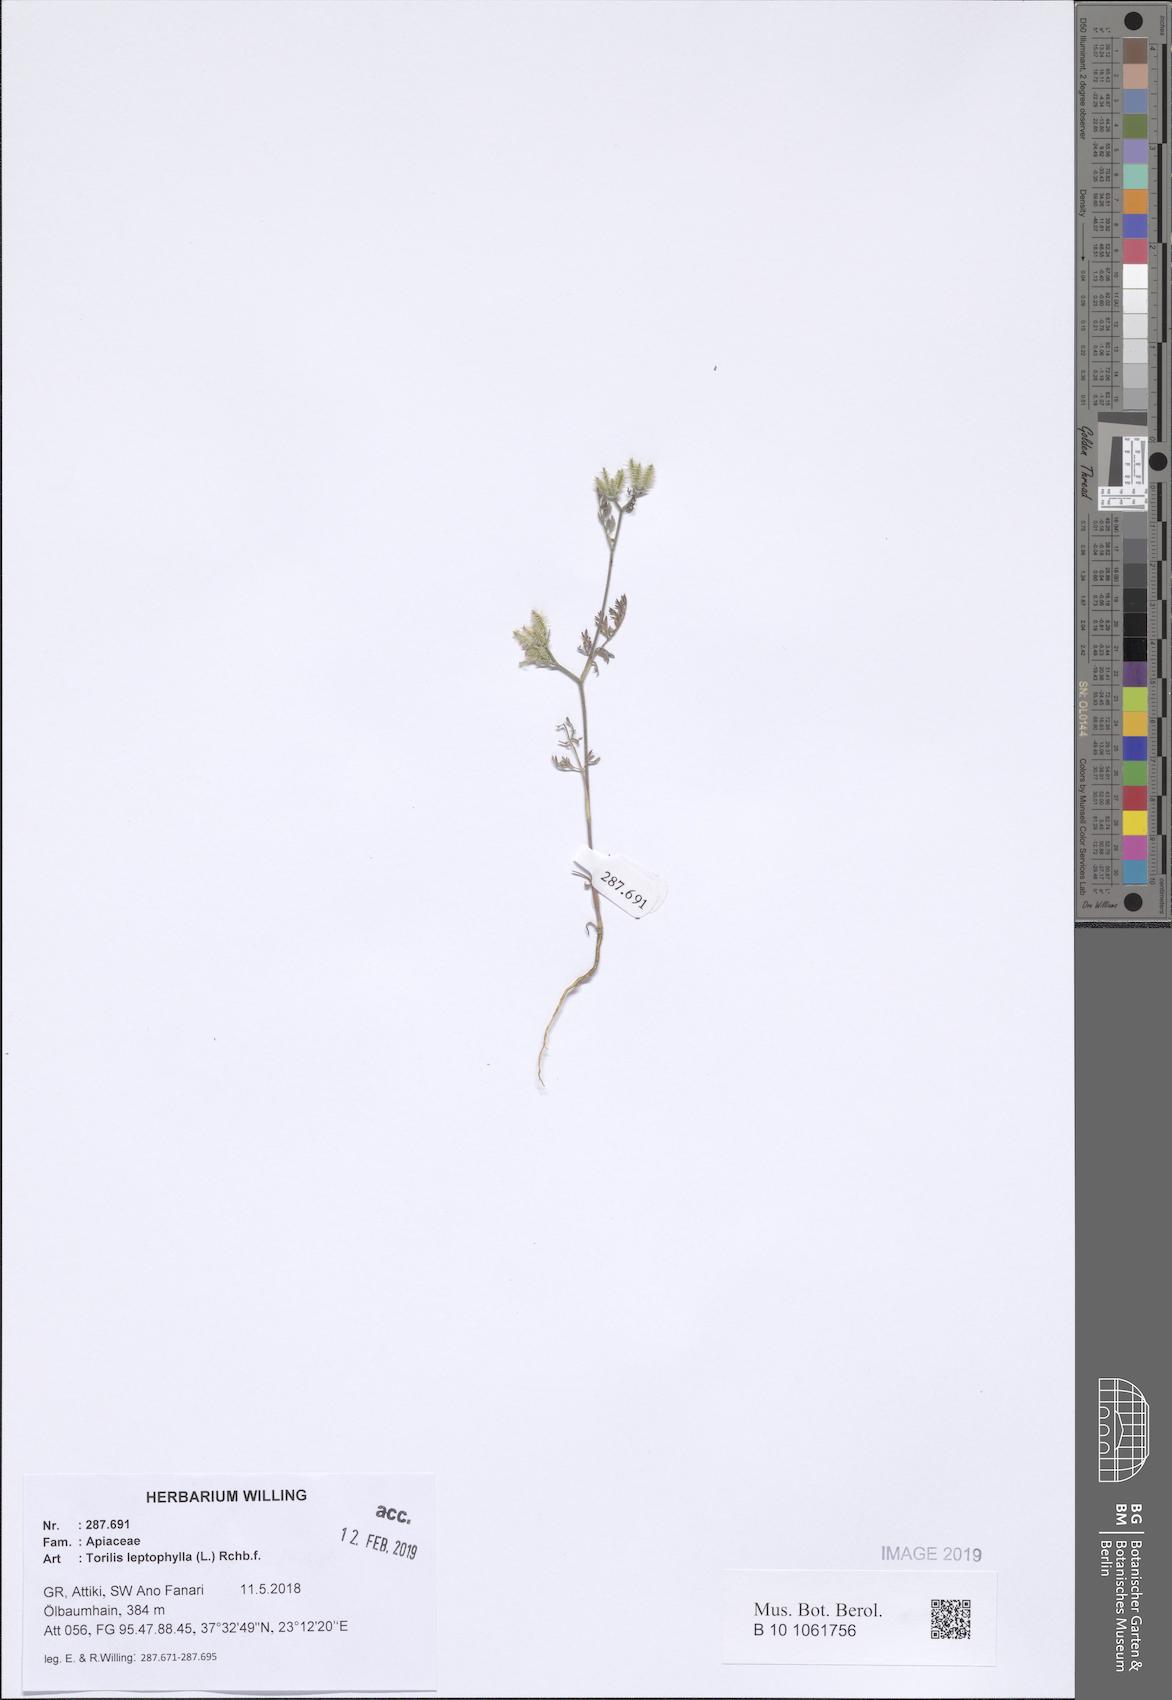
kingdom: Plantae
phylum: Tracheophyta
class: Magnoliopsida
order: Apiales
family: Apiaceae
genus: Torilis
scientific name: Torilis leptophylla
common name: Bristlefruit hedgeparsley
